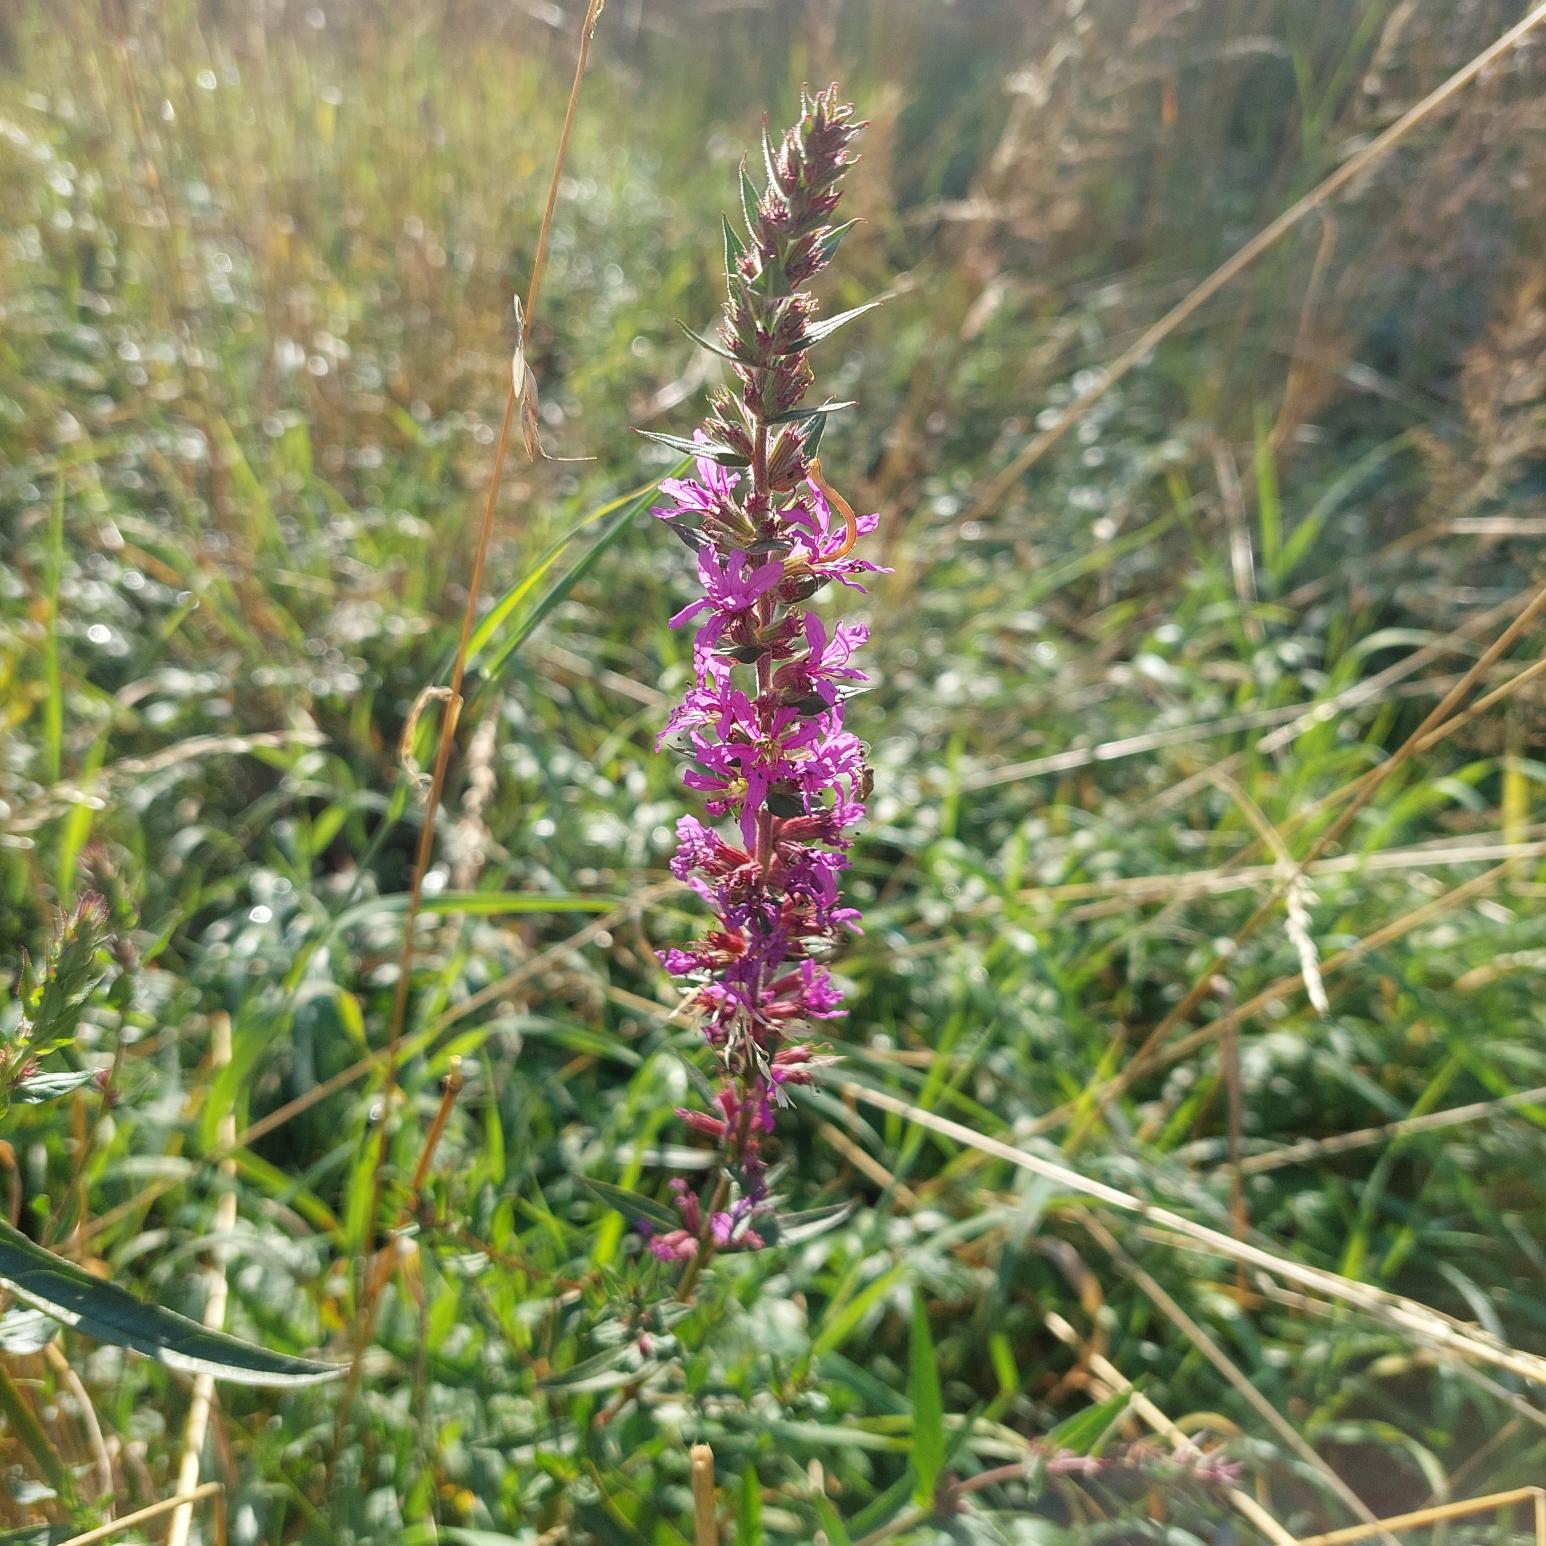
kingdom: Plantae
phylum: Tracheophyta
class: Magnoliopsida
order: Myrtales
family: Lythraceae
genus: Lythrum
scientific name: Lythrum salicaria
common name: Kattehale
